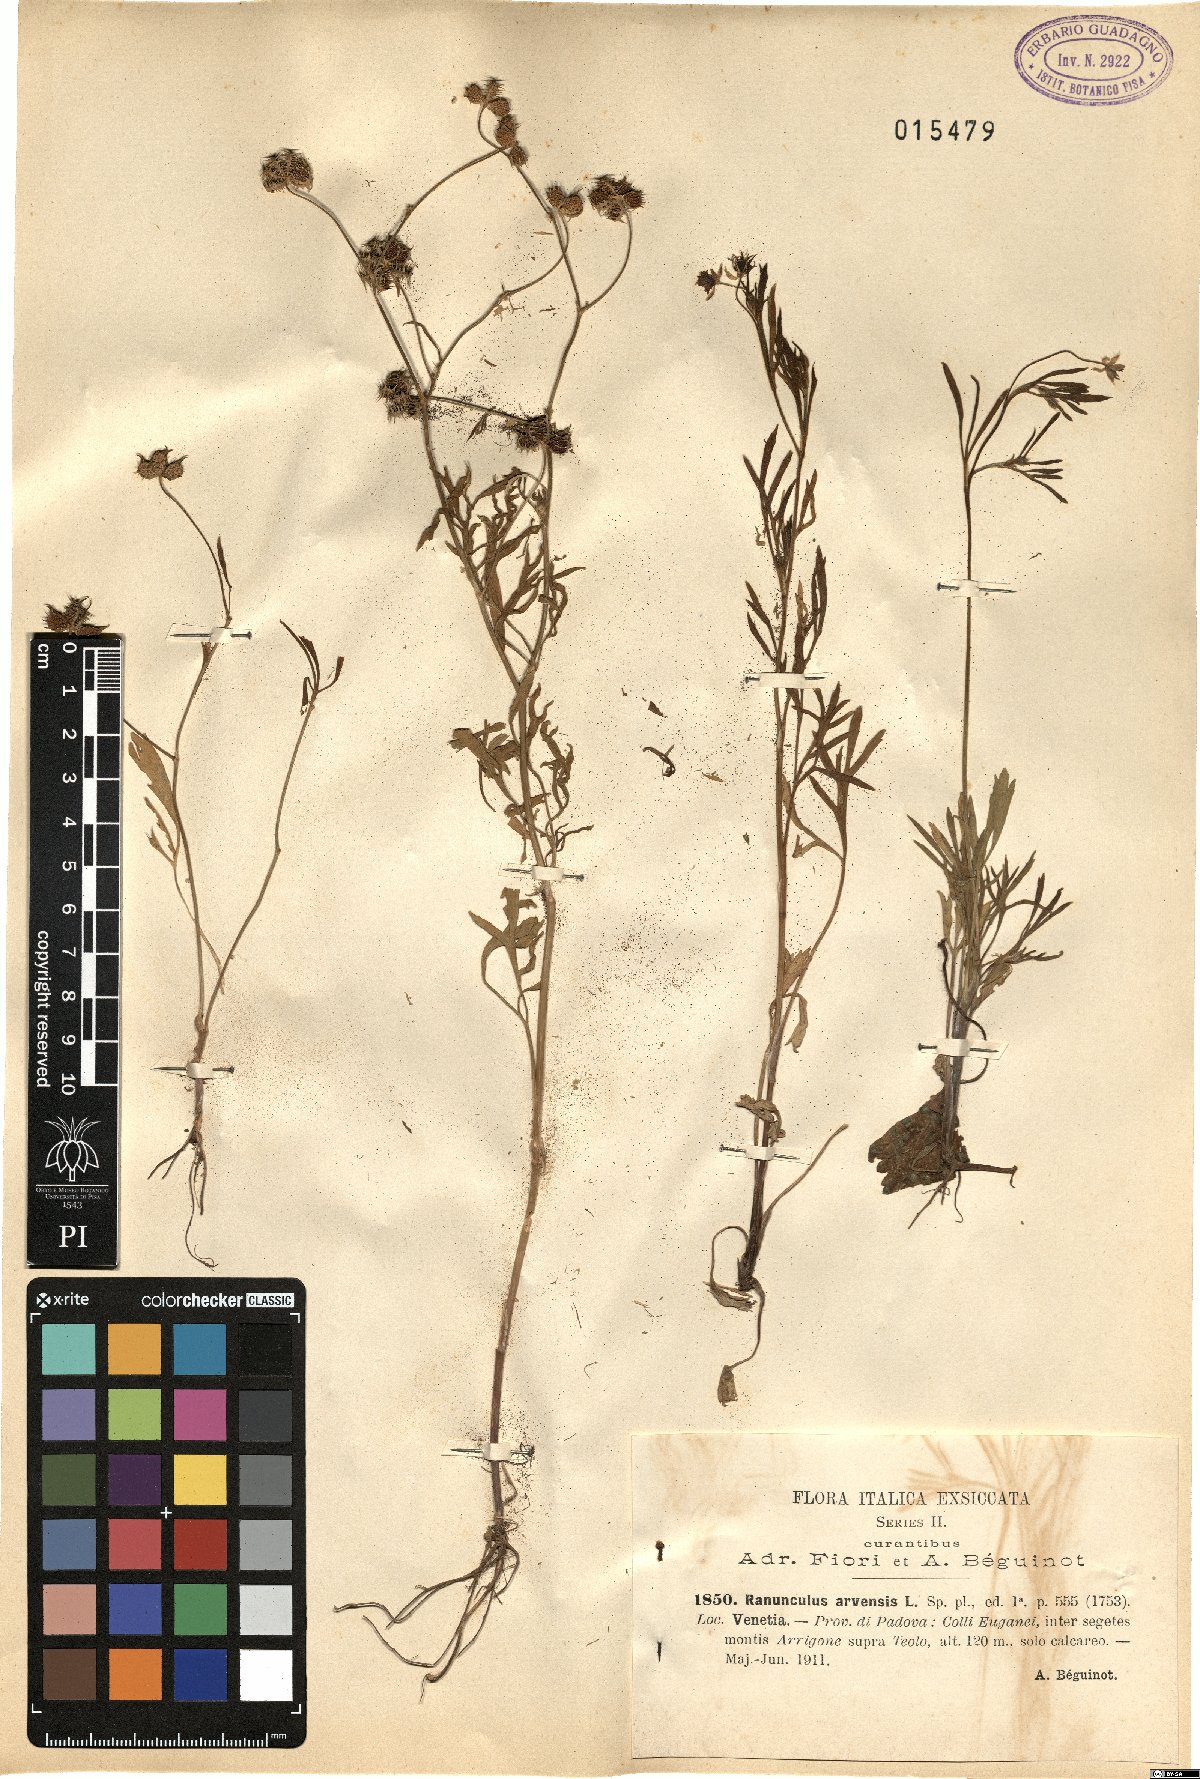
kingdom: Plantae
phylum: Tracheophyta
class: Magnoliopsida
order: Ranunculales
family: Ranunculaceae
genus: Ranunculus
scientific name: Ranunculus arvensis
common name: Corn buttercup
